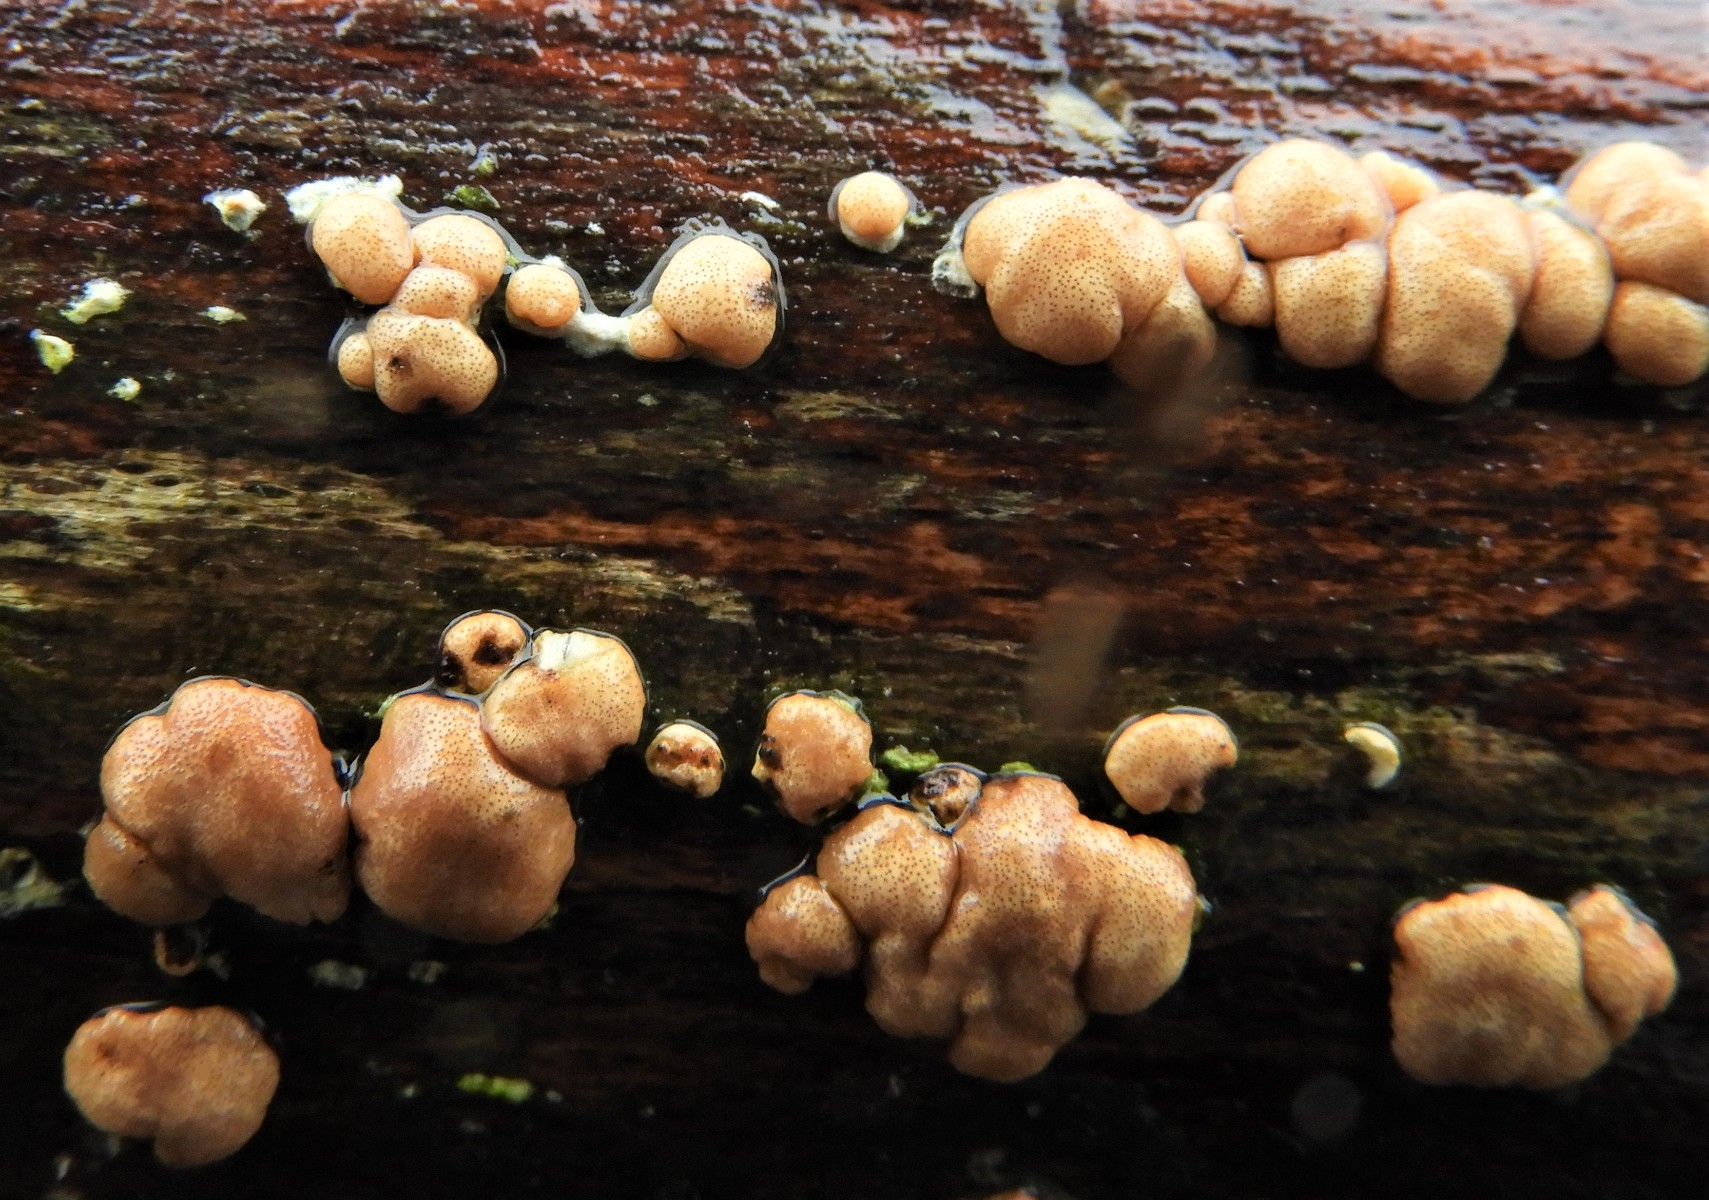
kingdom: Fungi
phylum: Ascomycota
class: Sordariomycetes
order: Hypocreales
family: Hypocreaceae
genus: Trichoderma
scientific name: Trichoderma europaeum
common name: rosabrun kødkerne
